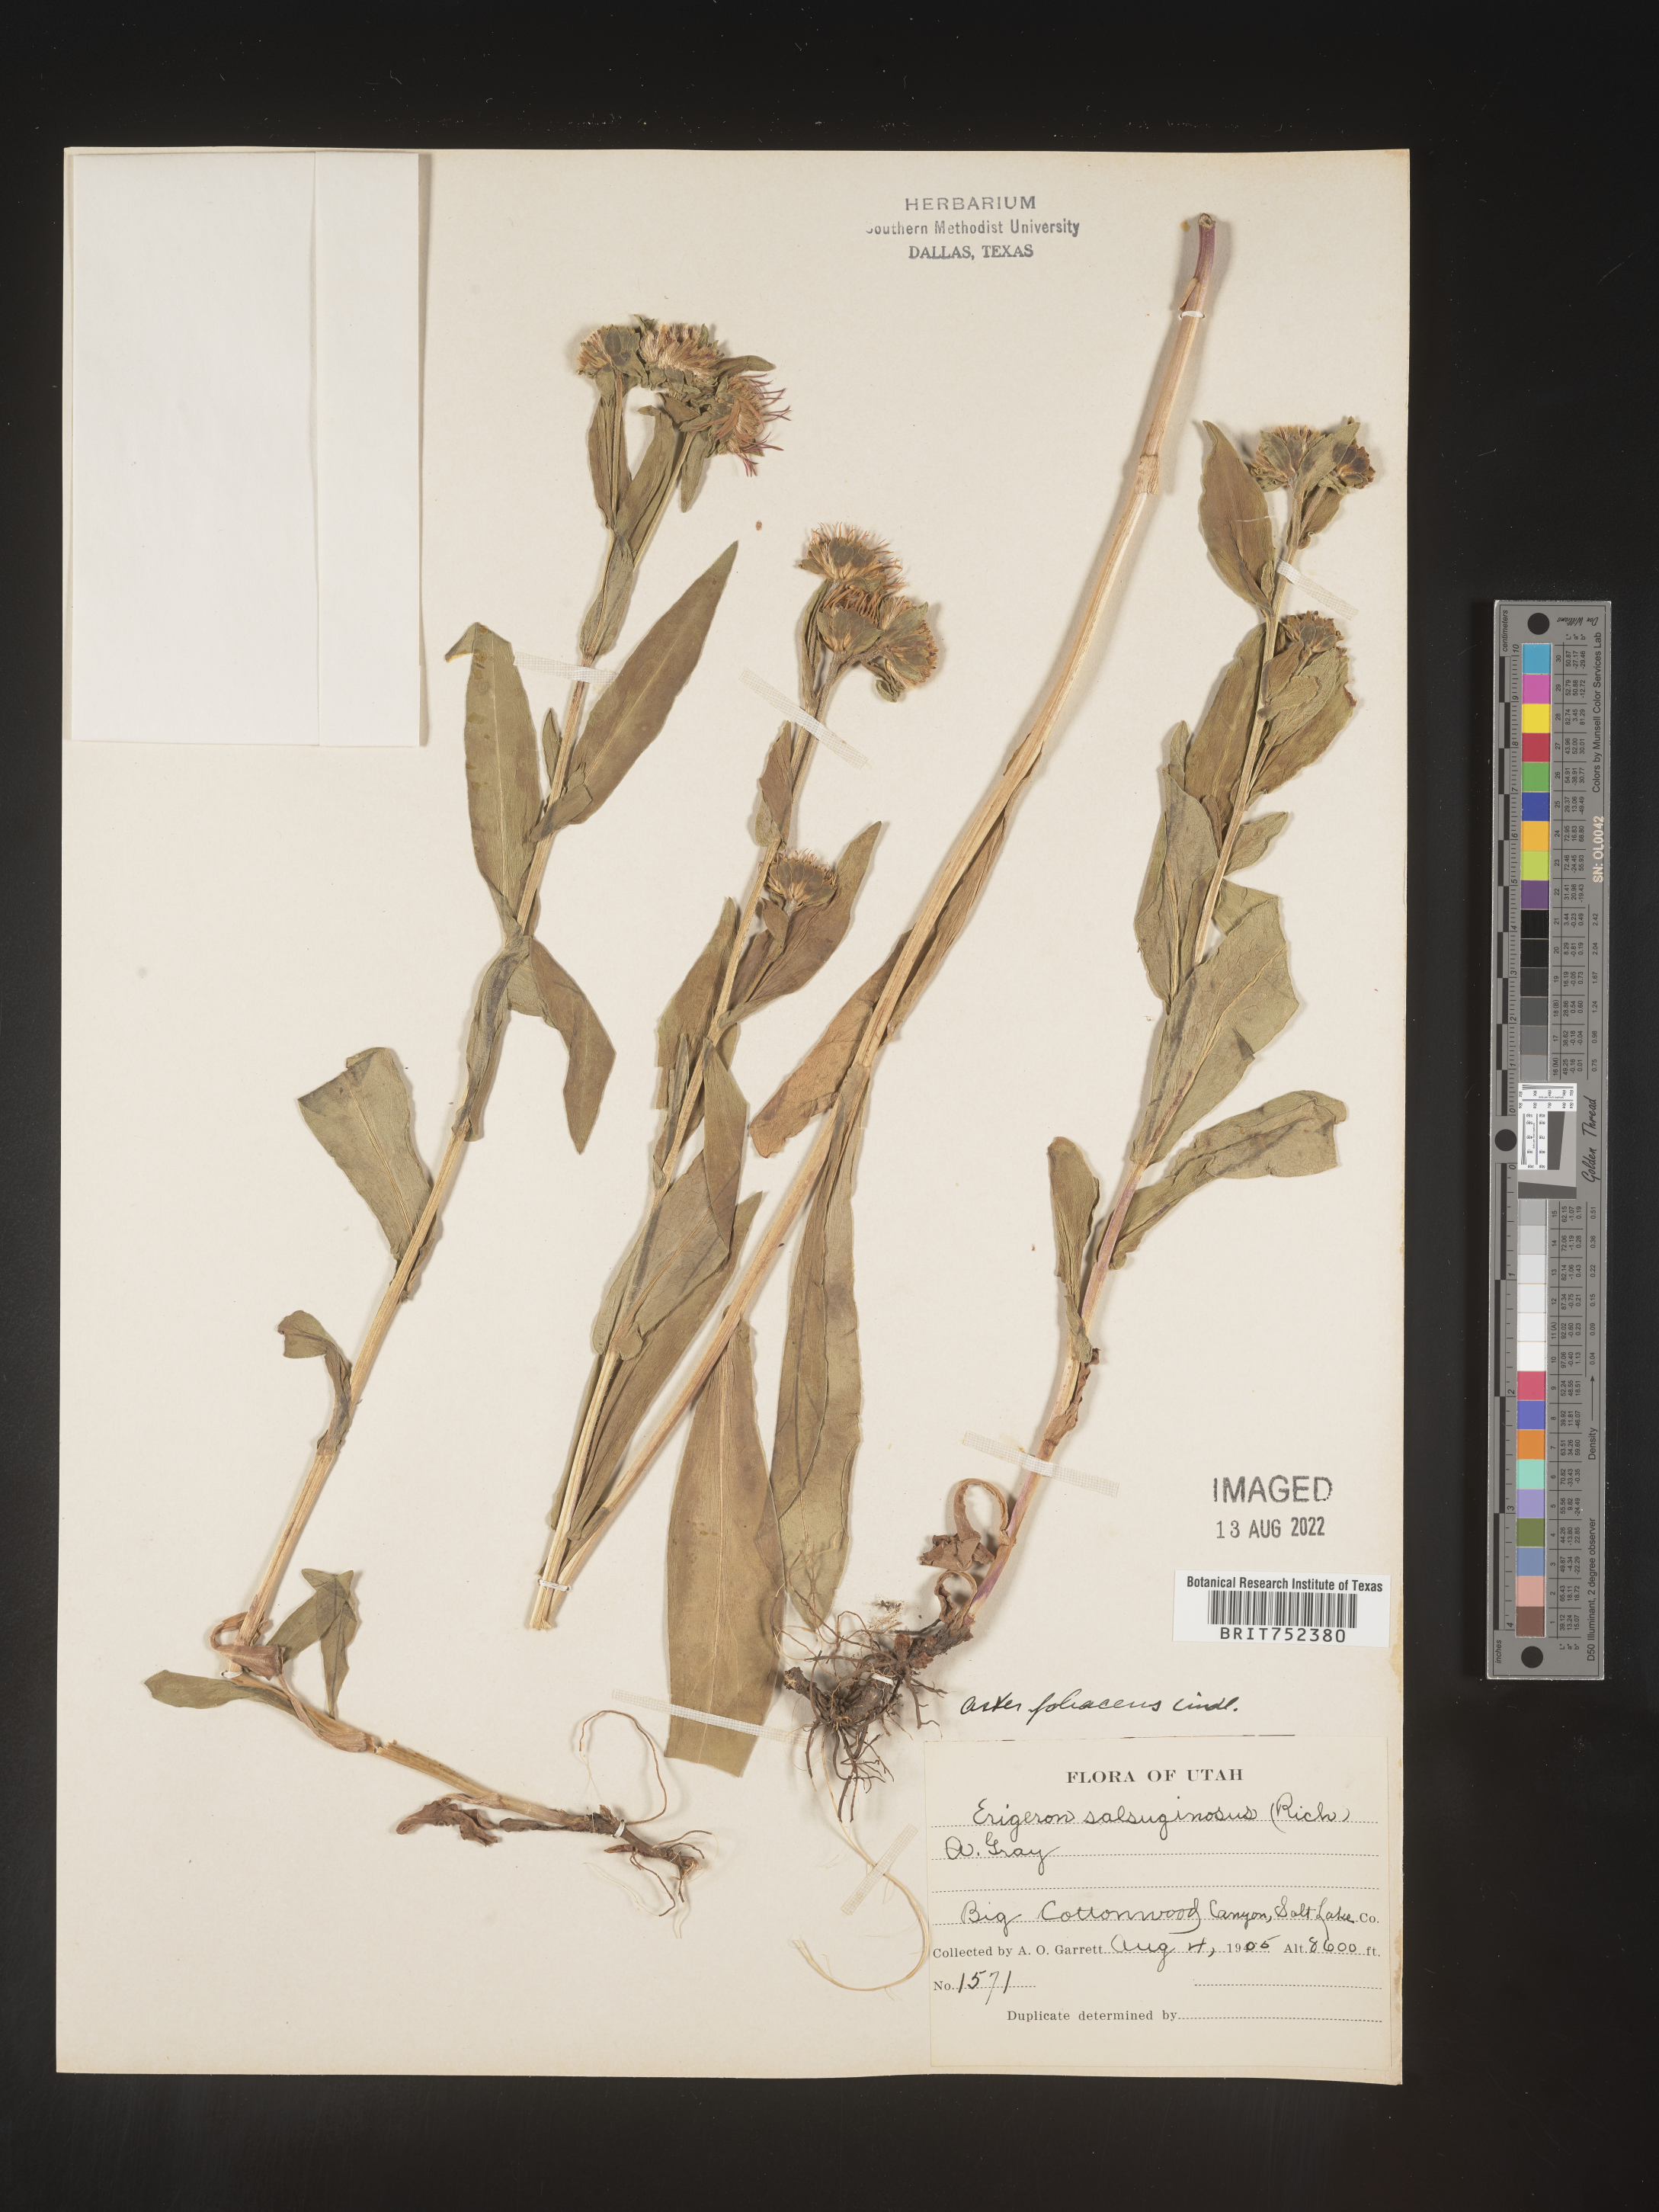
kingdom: Plantae
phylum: Tracheophyta
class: Magnoliopsida
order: Asterales
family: Asteraceae
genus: Symphyotrichum
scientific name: Symphyotrichum foliaceum
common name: Leafy aster
